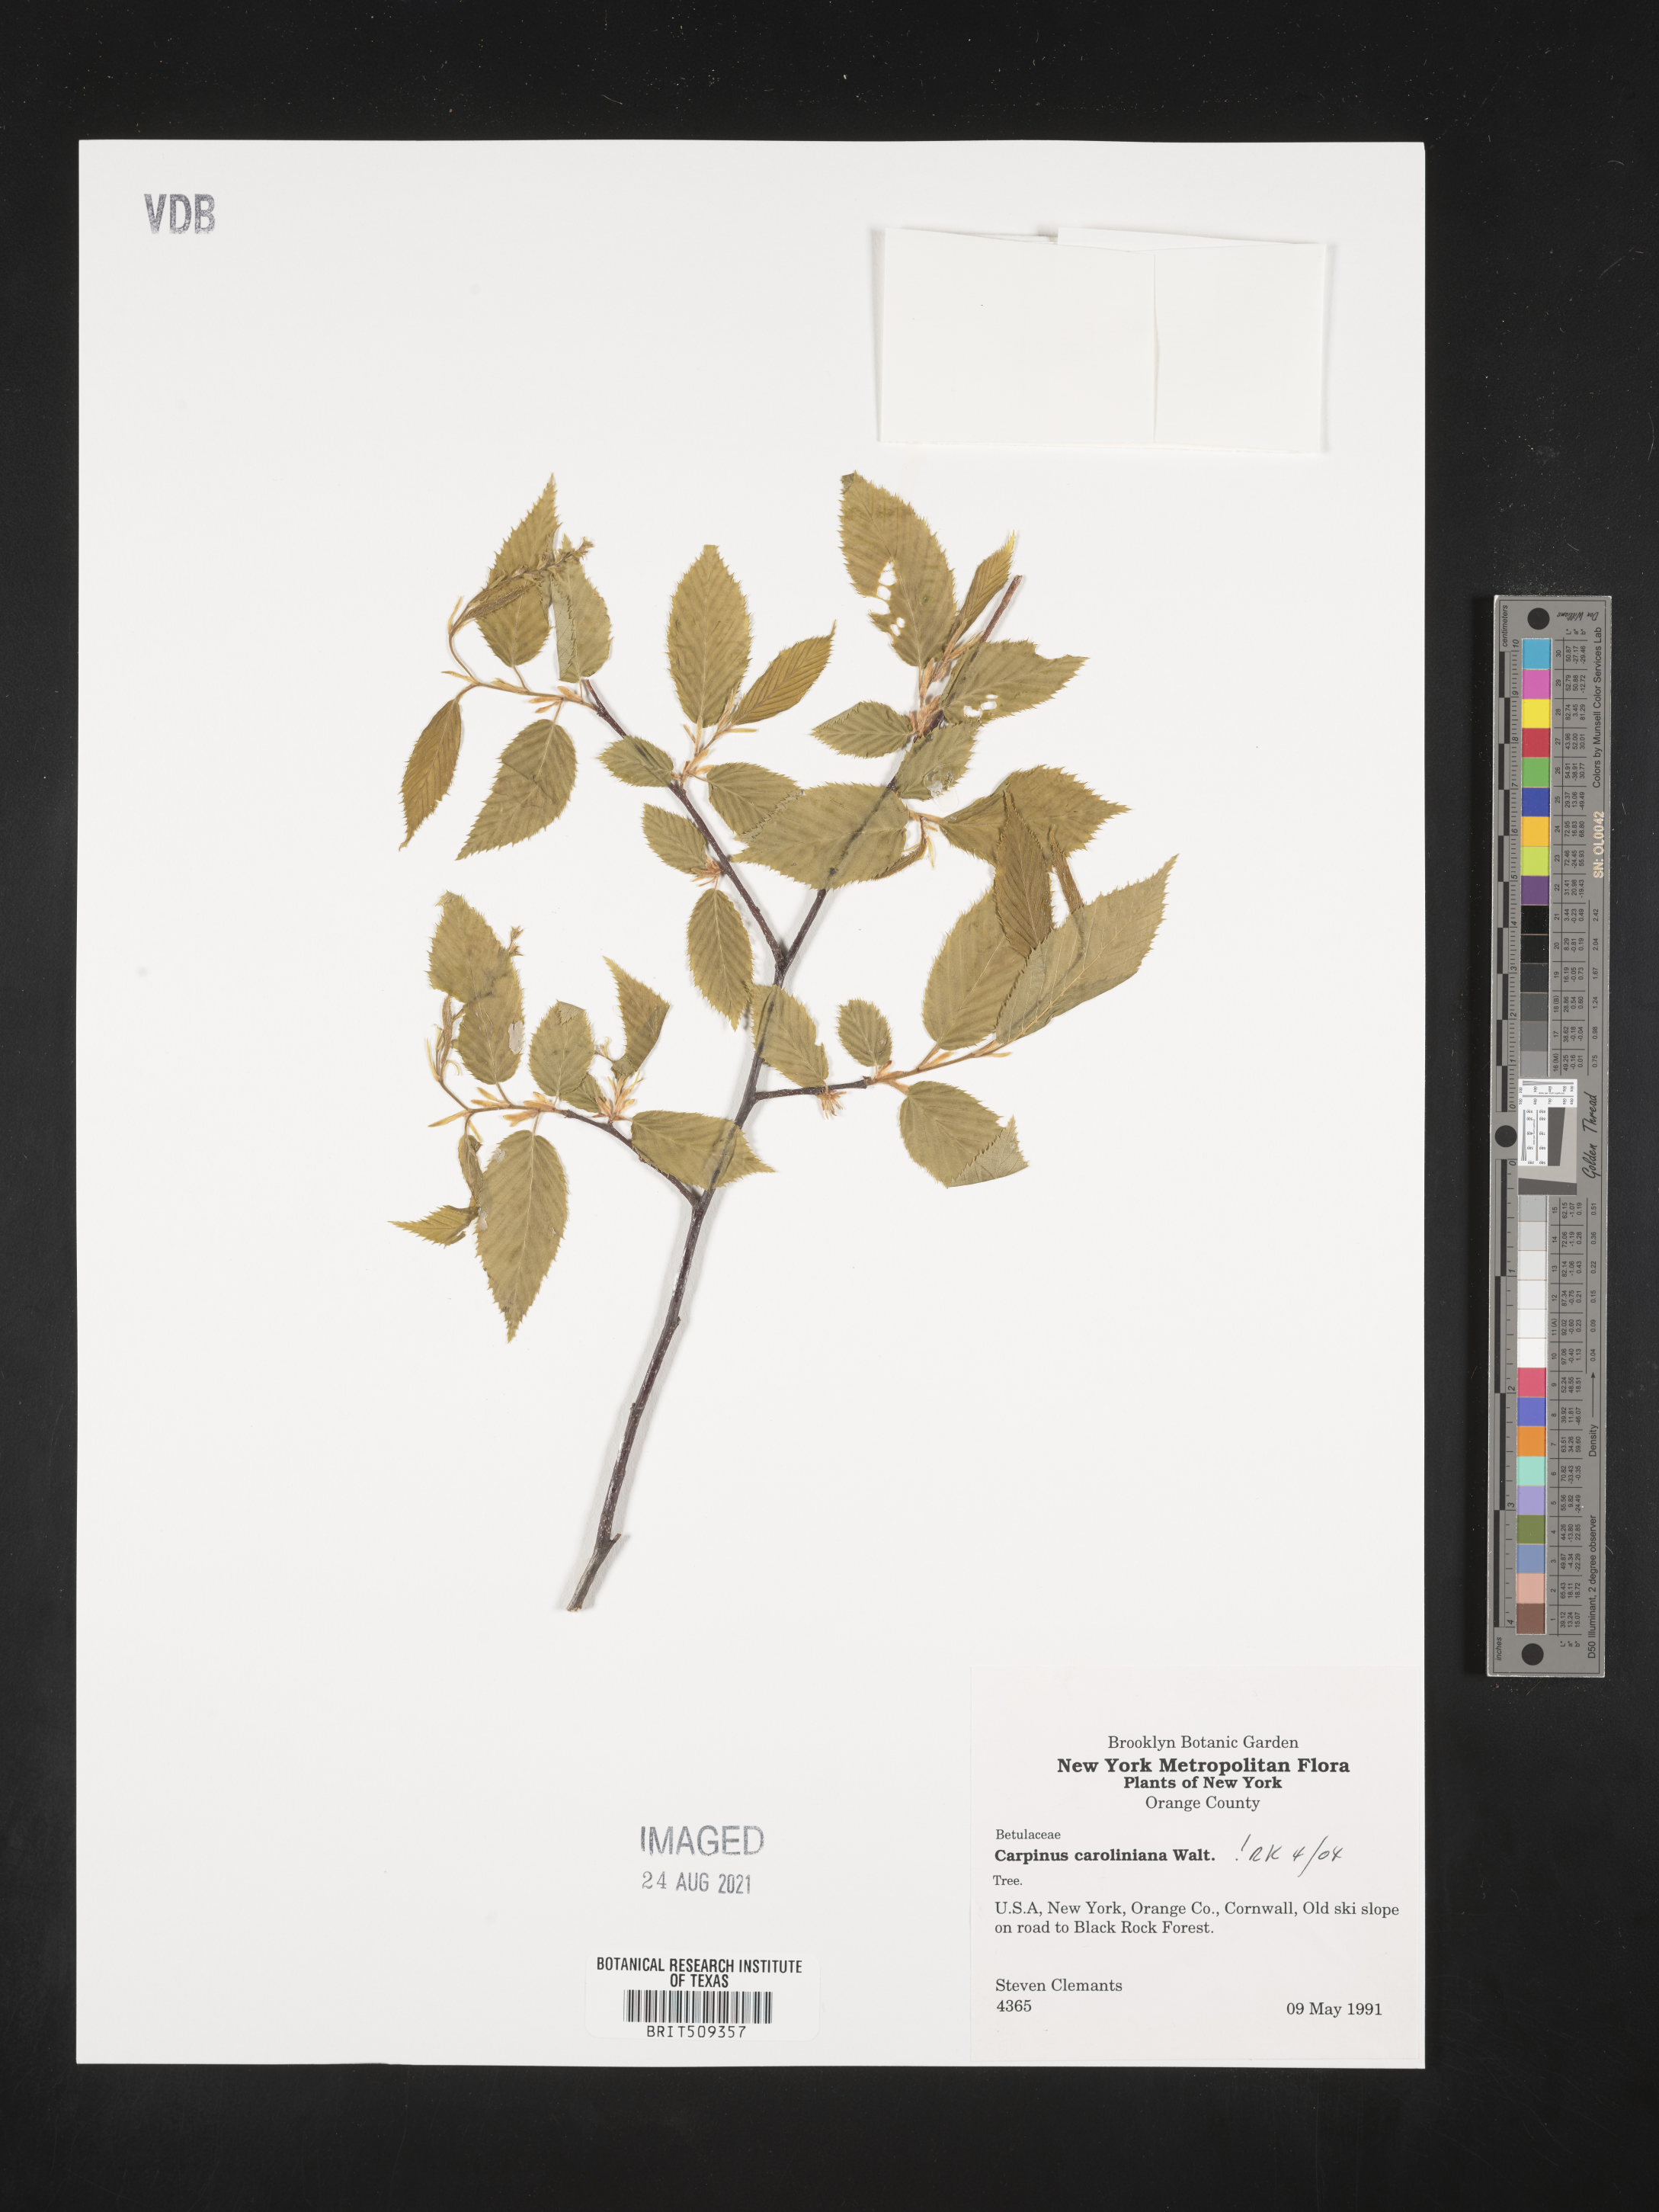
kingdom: Plantae
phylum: Tracheophyta
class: Magnoliopsida
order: Fagales
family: Betulaceae
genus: Carpinus
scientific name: Carpinus caroliniana
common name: American hornbeam
